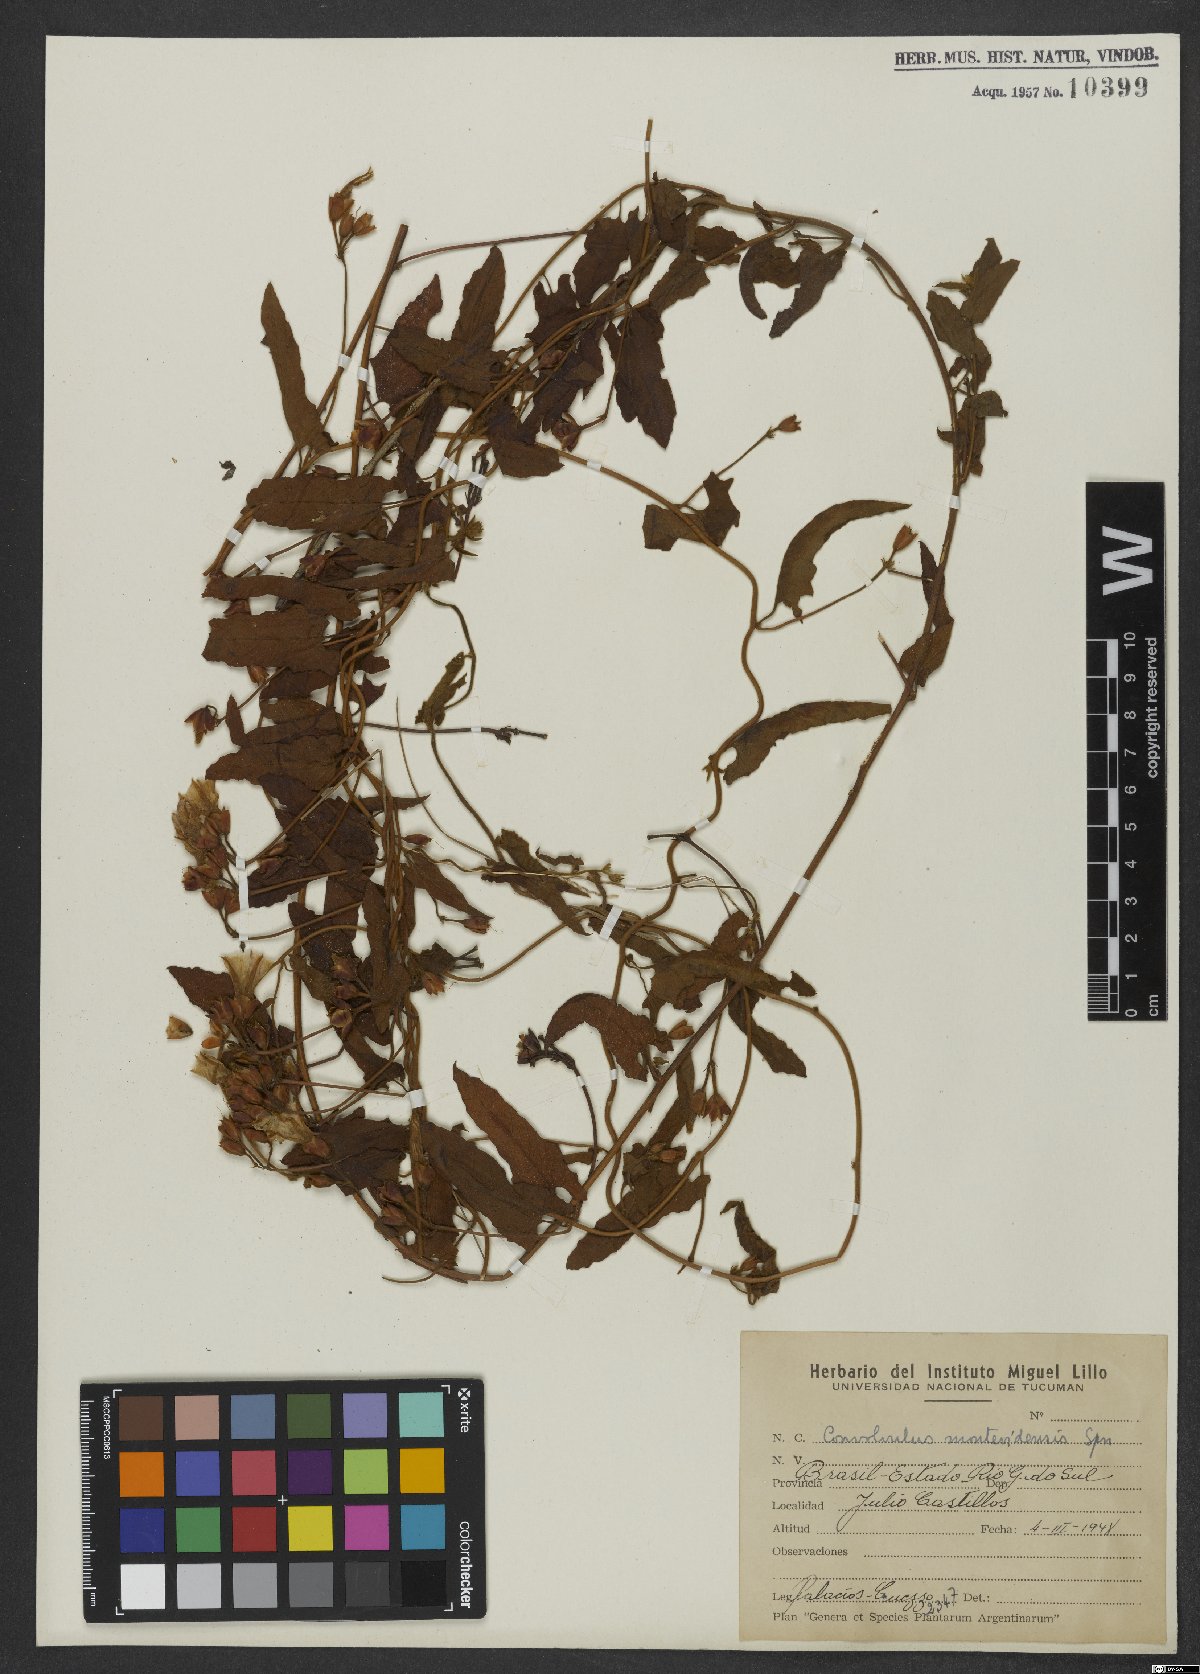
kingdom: Plantae
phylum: Tracheophyta
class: Magnoliopsida
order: Solanales
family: Convolvulaceae
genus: Convolvulus
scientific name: Convolvulus crenatifolius
